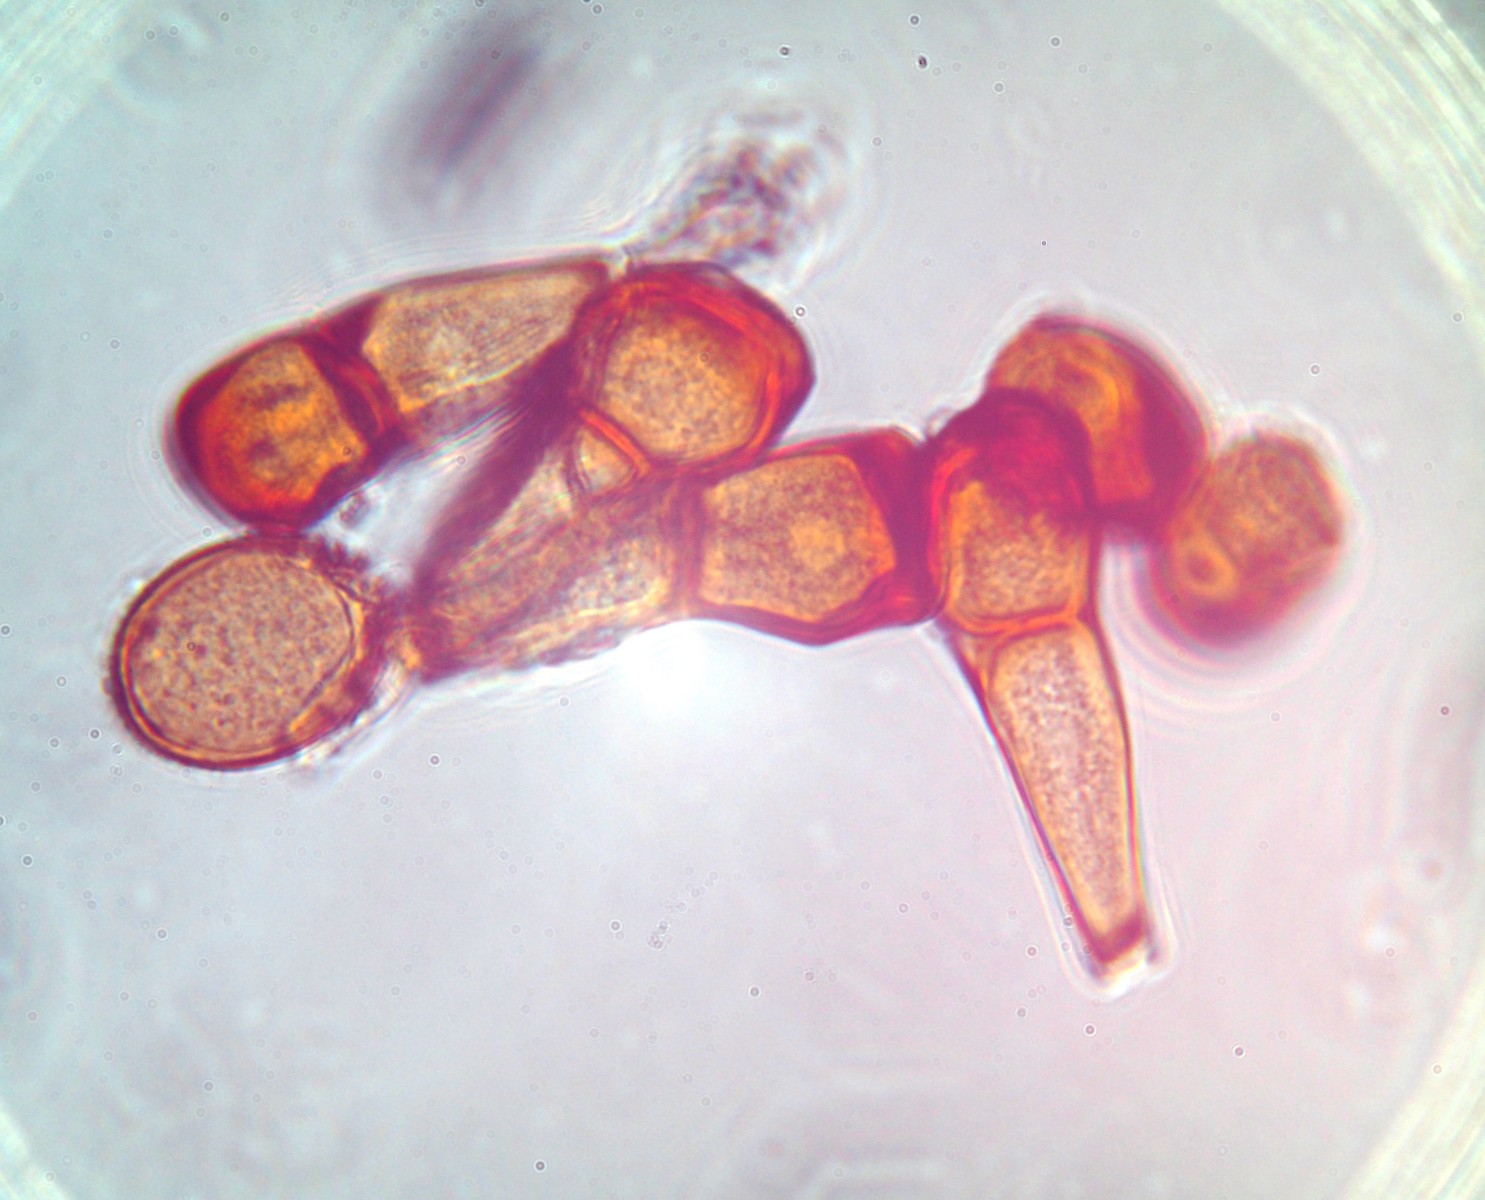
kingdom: Fungi
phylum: Basidiomycota
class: Pucciniomycetes
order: Pucciniales
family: Pucciniaceae
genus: Puccinia
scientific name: Puccinia polygoni-amphibii
